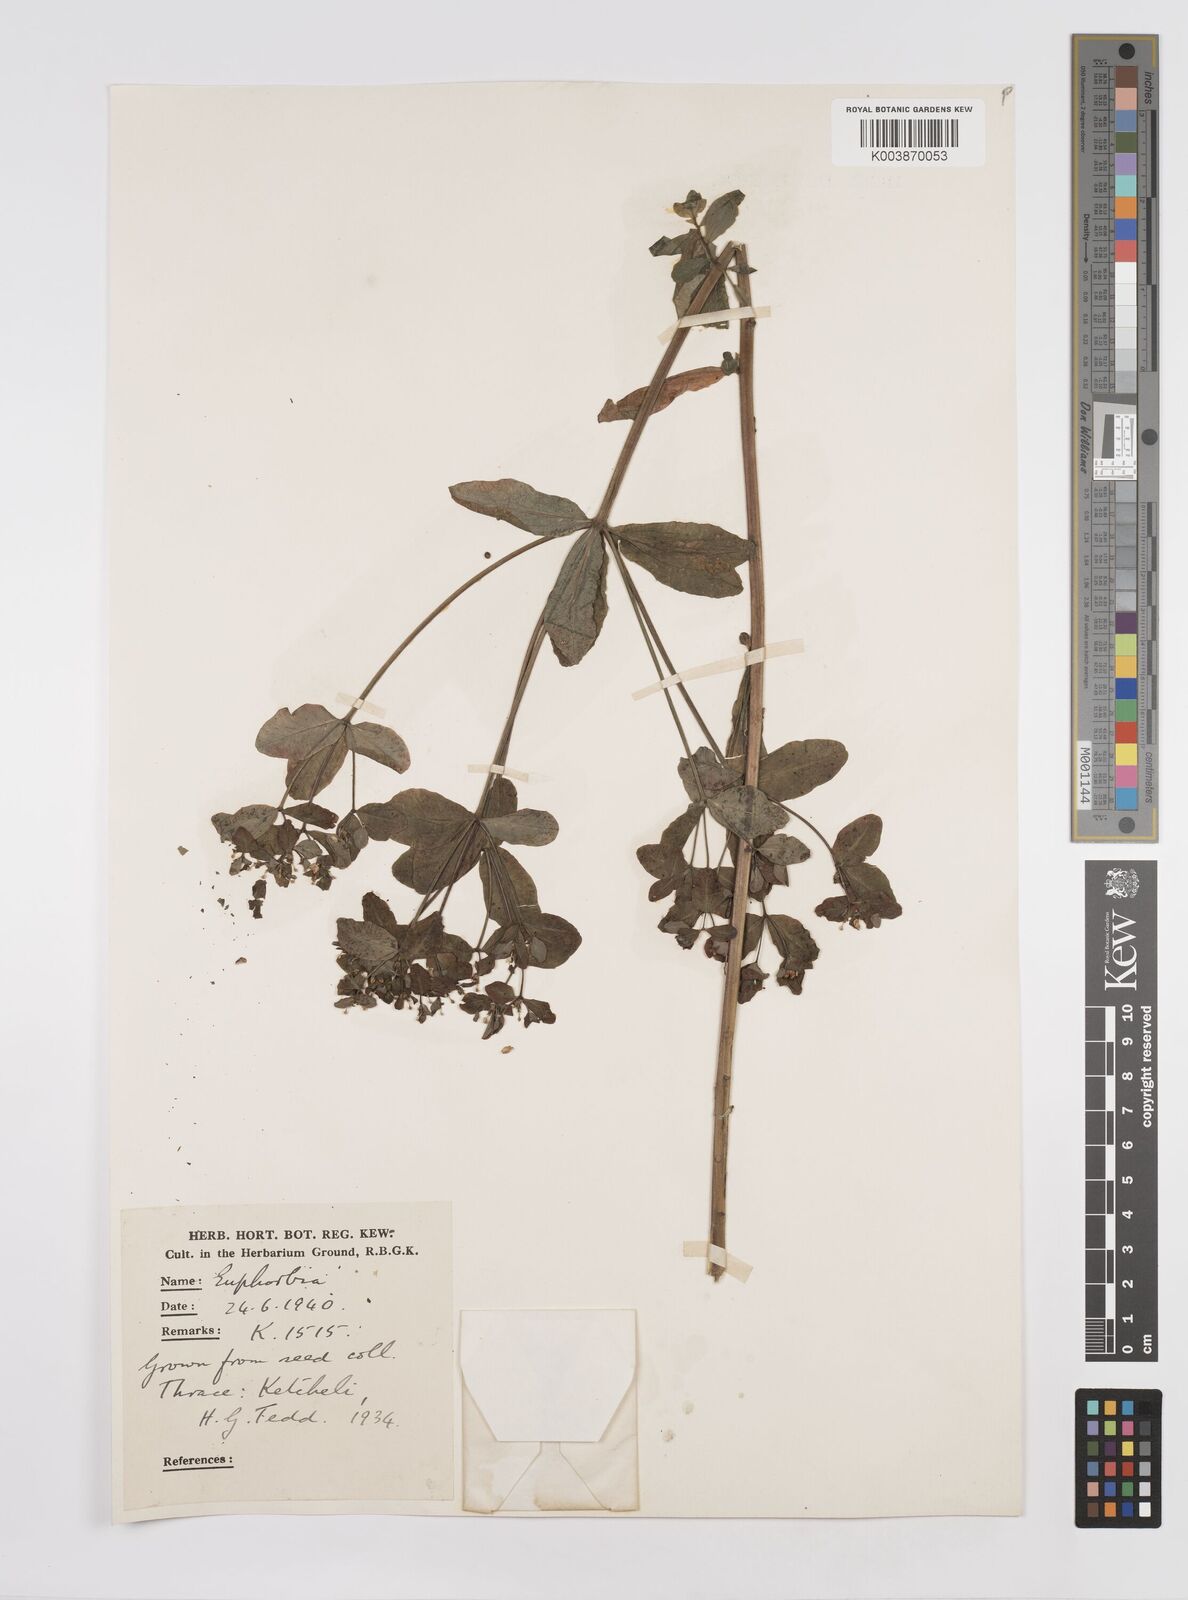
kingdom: Plantae
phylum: Tracheophyta
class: Magnoliopsida
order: Malpighiales
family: Euphorbiaceae
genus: Euphorbia
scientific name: Euphorbia epithymoides
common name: Cushion spurge
